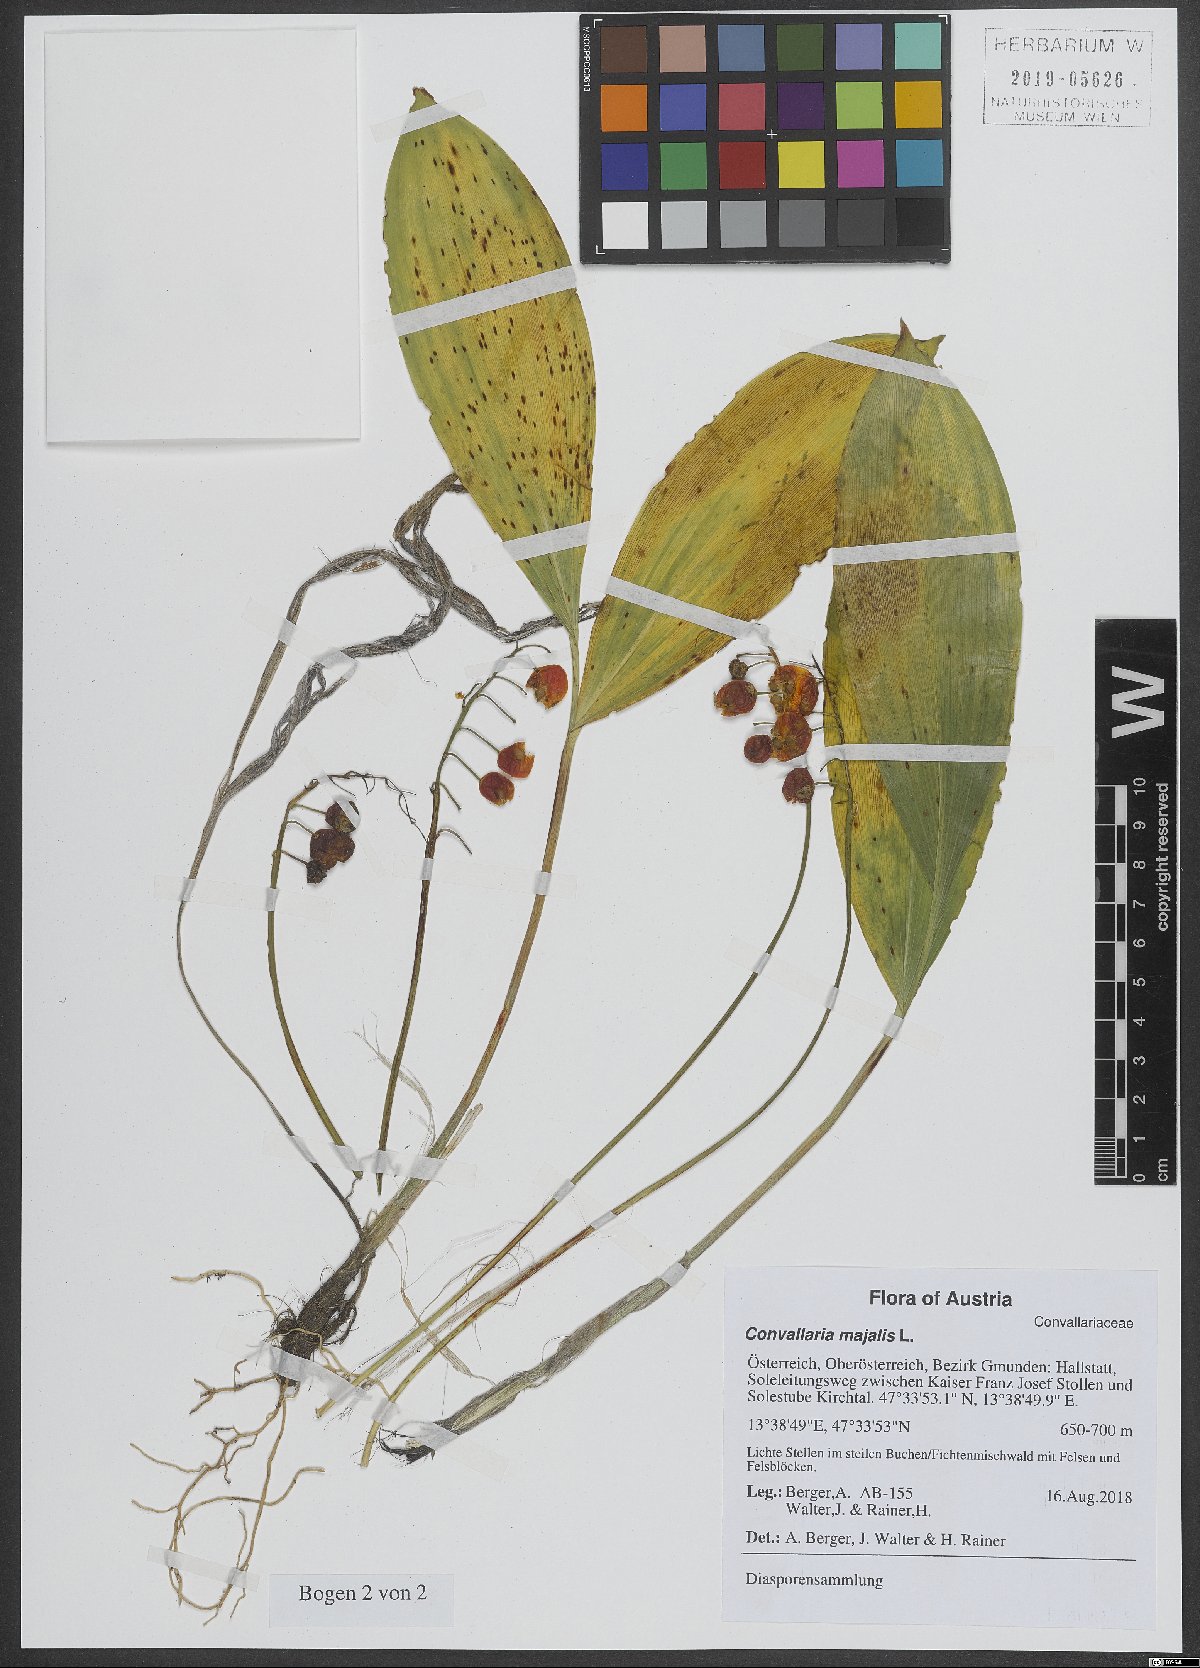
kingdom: Plantae
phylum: Tracheophyta
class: Liliopsida
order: Asparagales
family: Asparagaceae
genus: Convallaria
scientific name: Convallaria majalis
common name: Lily-of-the-valley
